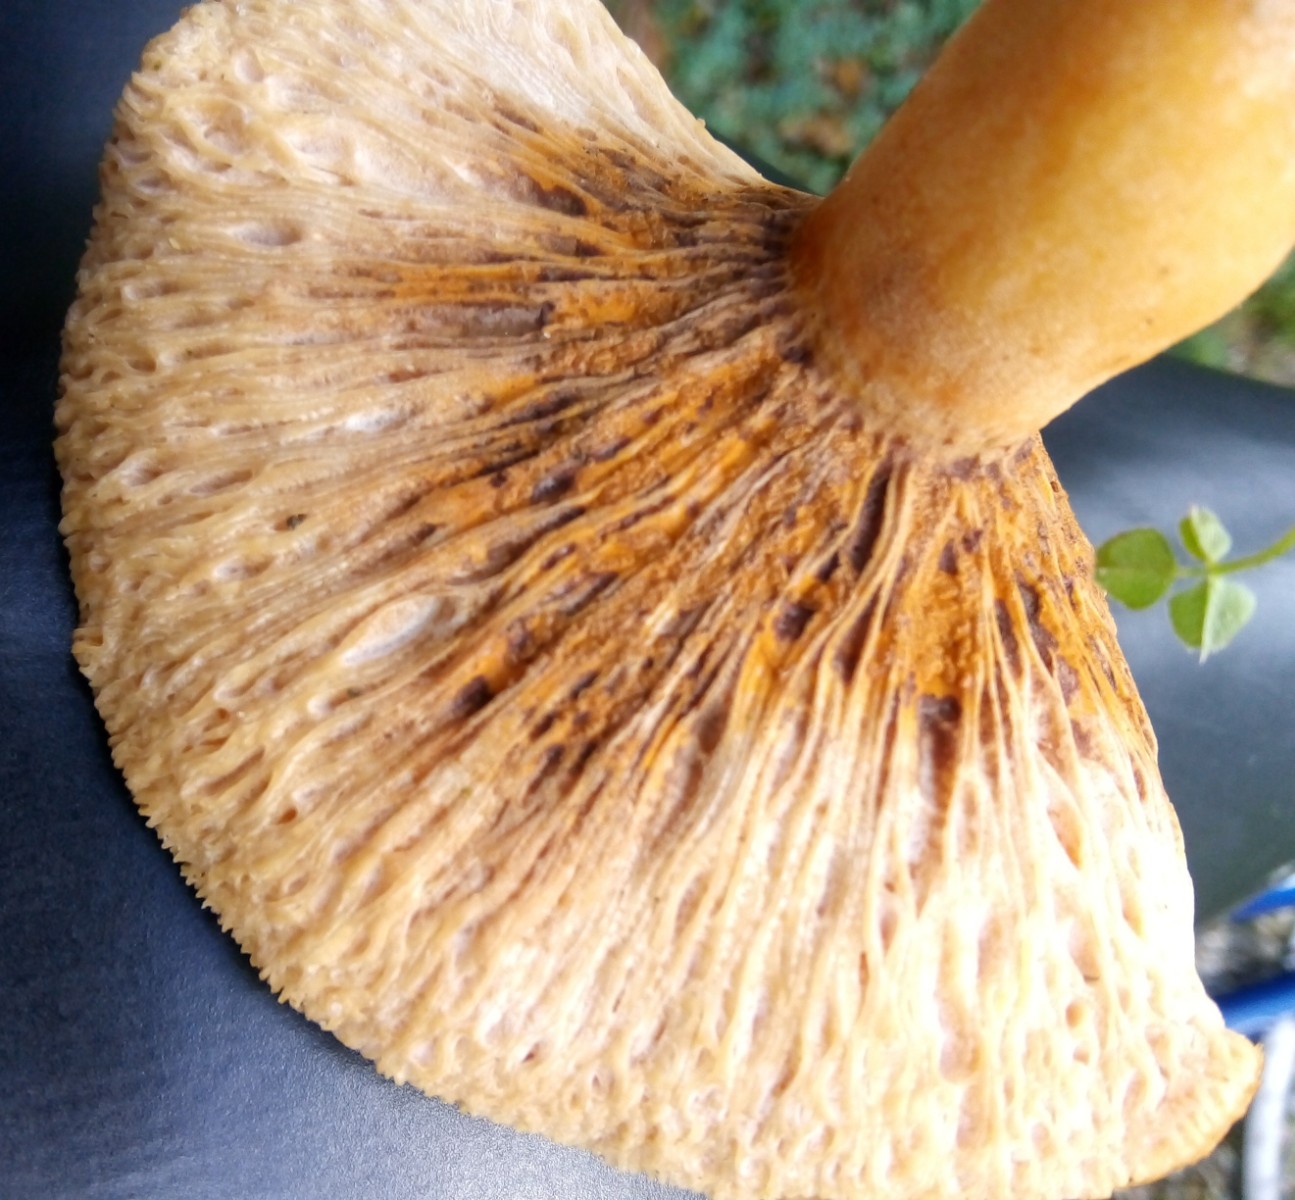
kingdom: Fungi
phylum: Ascomycota
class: Sordariomycetes
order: Hypocreales
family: Hypocreaceae
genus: Hypomyces
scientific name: Hypomyces spadiceus
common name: mælkeskæg-snylteskorpe
